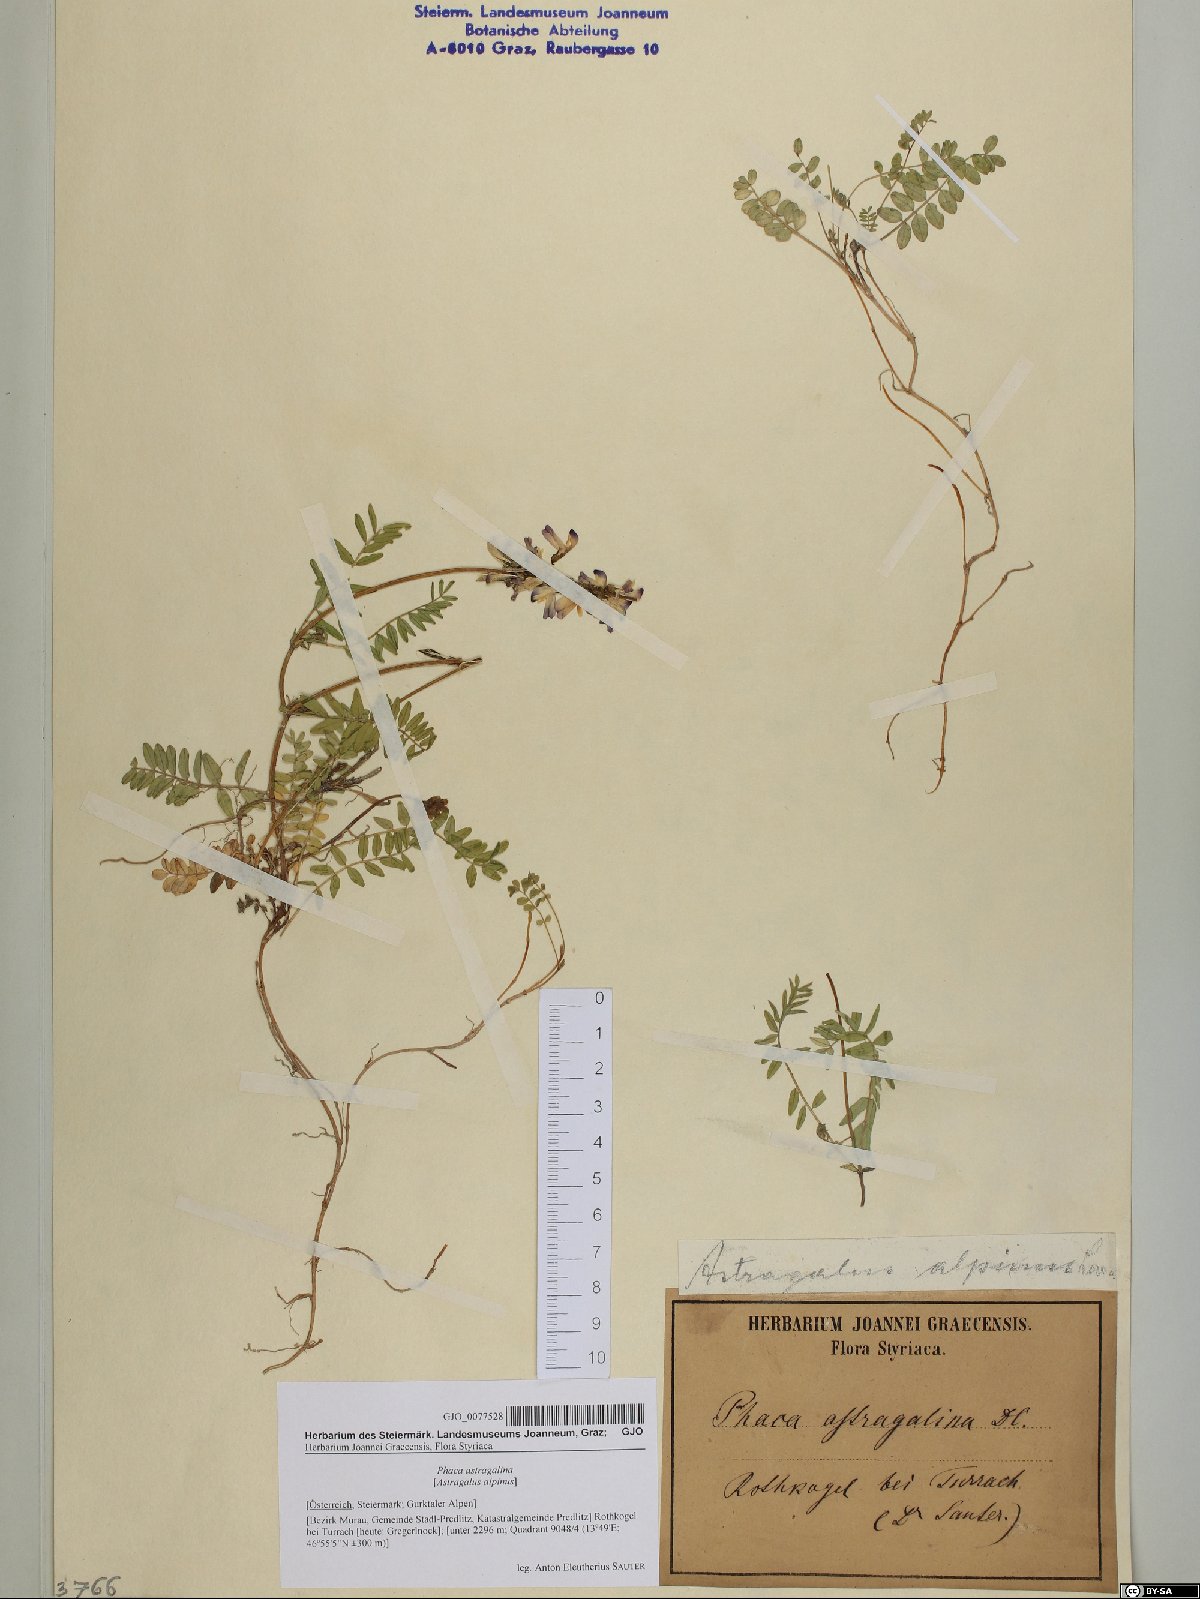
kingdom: Plantae
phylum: Tracheophyta
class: Magnoliopsida
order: Fabales
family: Fabaceae
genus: Astragalus
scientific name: Astragalus alpinus
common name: Alpine milk-vetch
